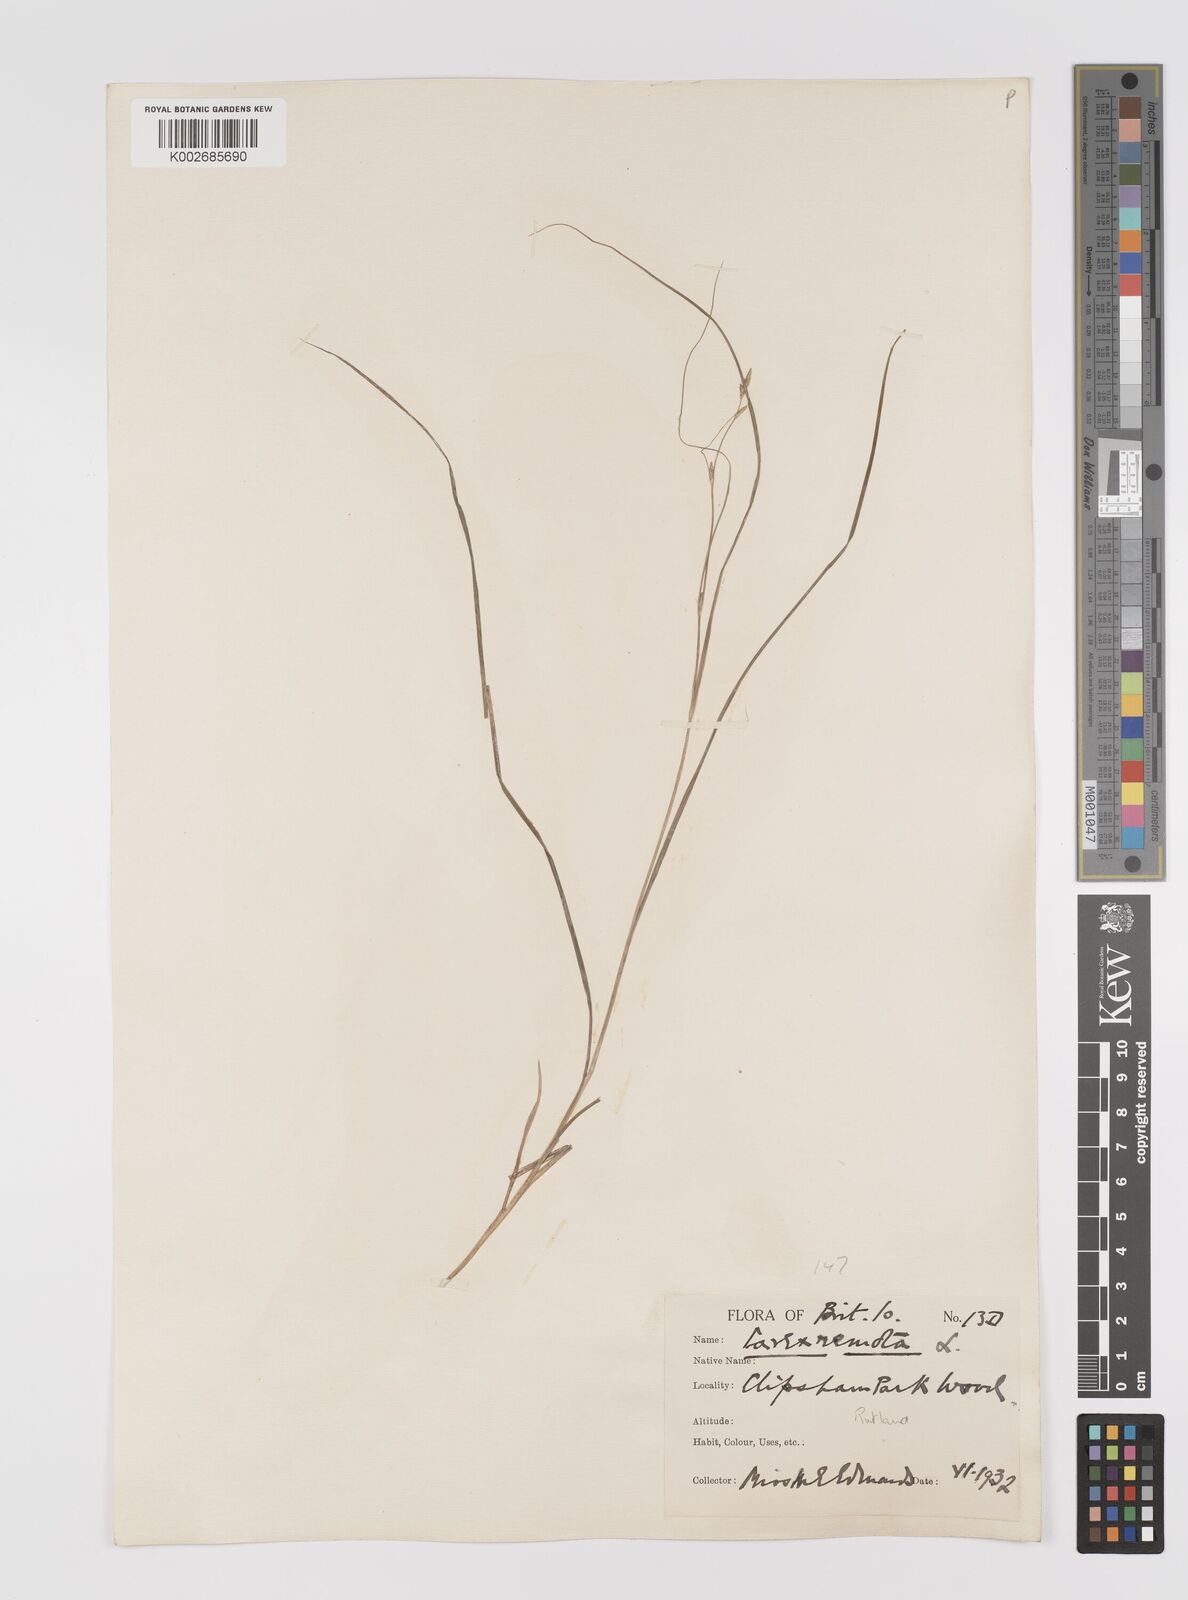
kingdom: Plantae
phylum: Tracheophyta
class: Liliopsida
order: Poales
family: Cyperaceae
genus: Carex
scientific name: Carex remota
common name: Remote sedge
